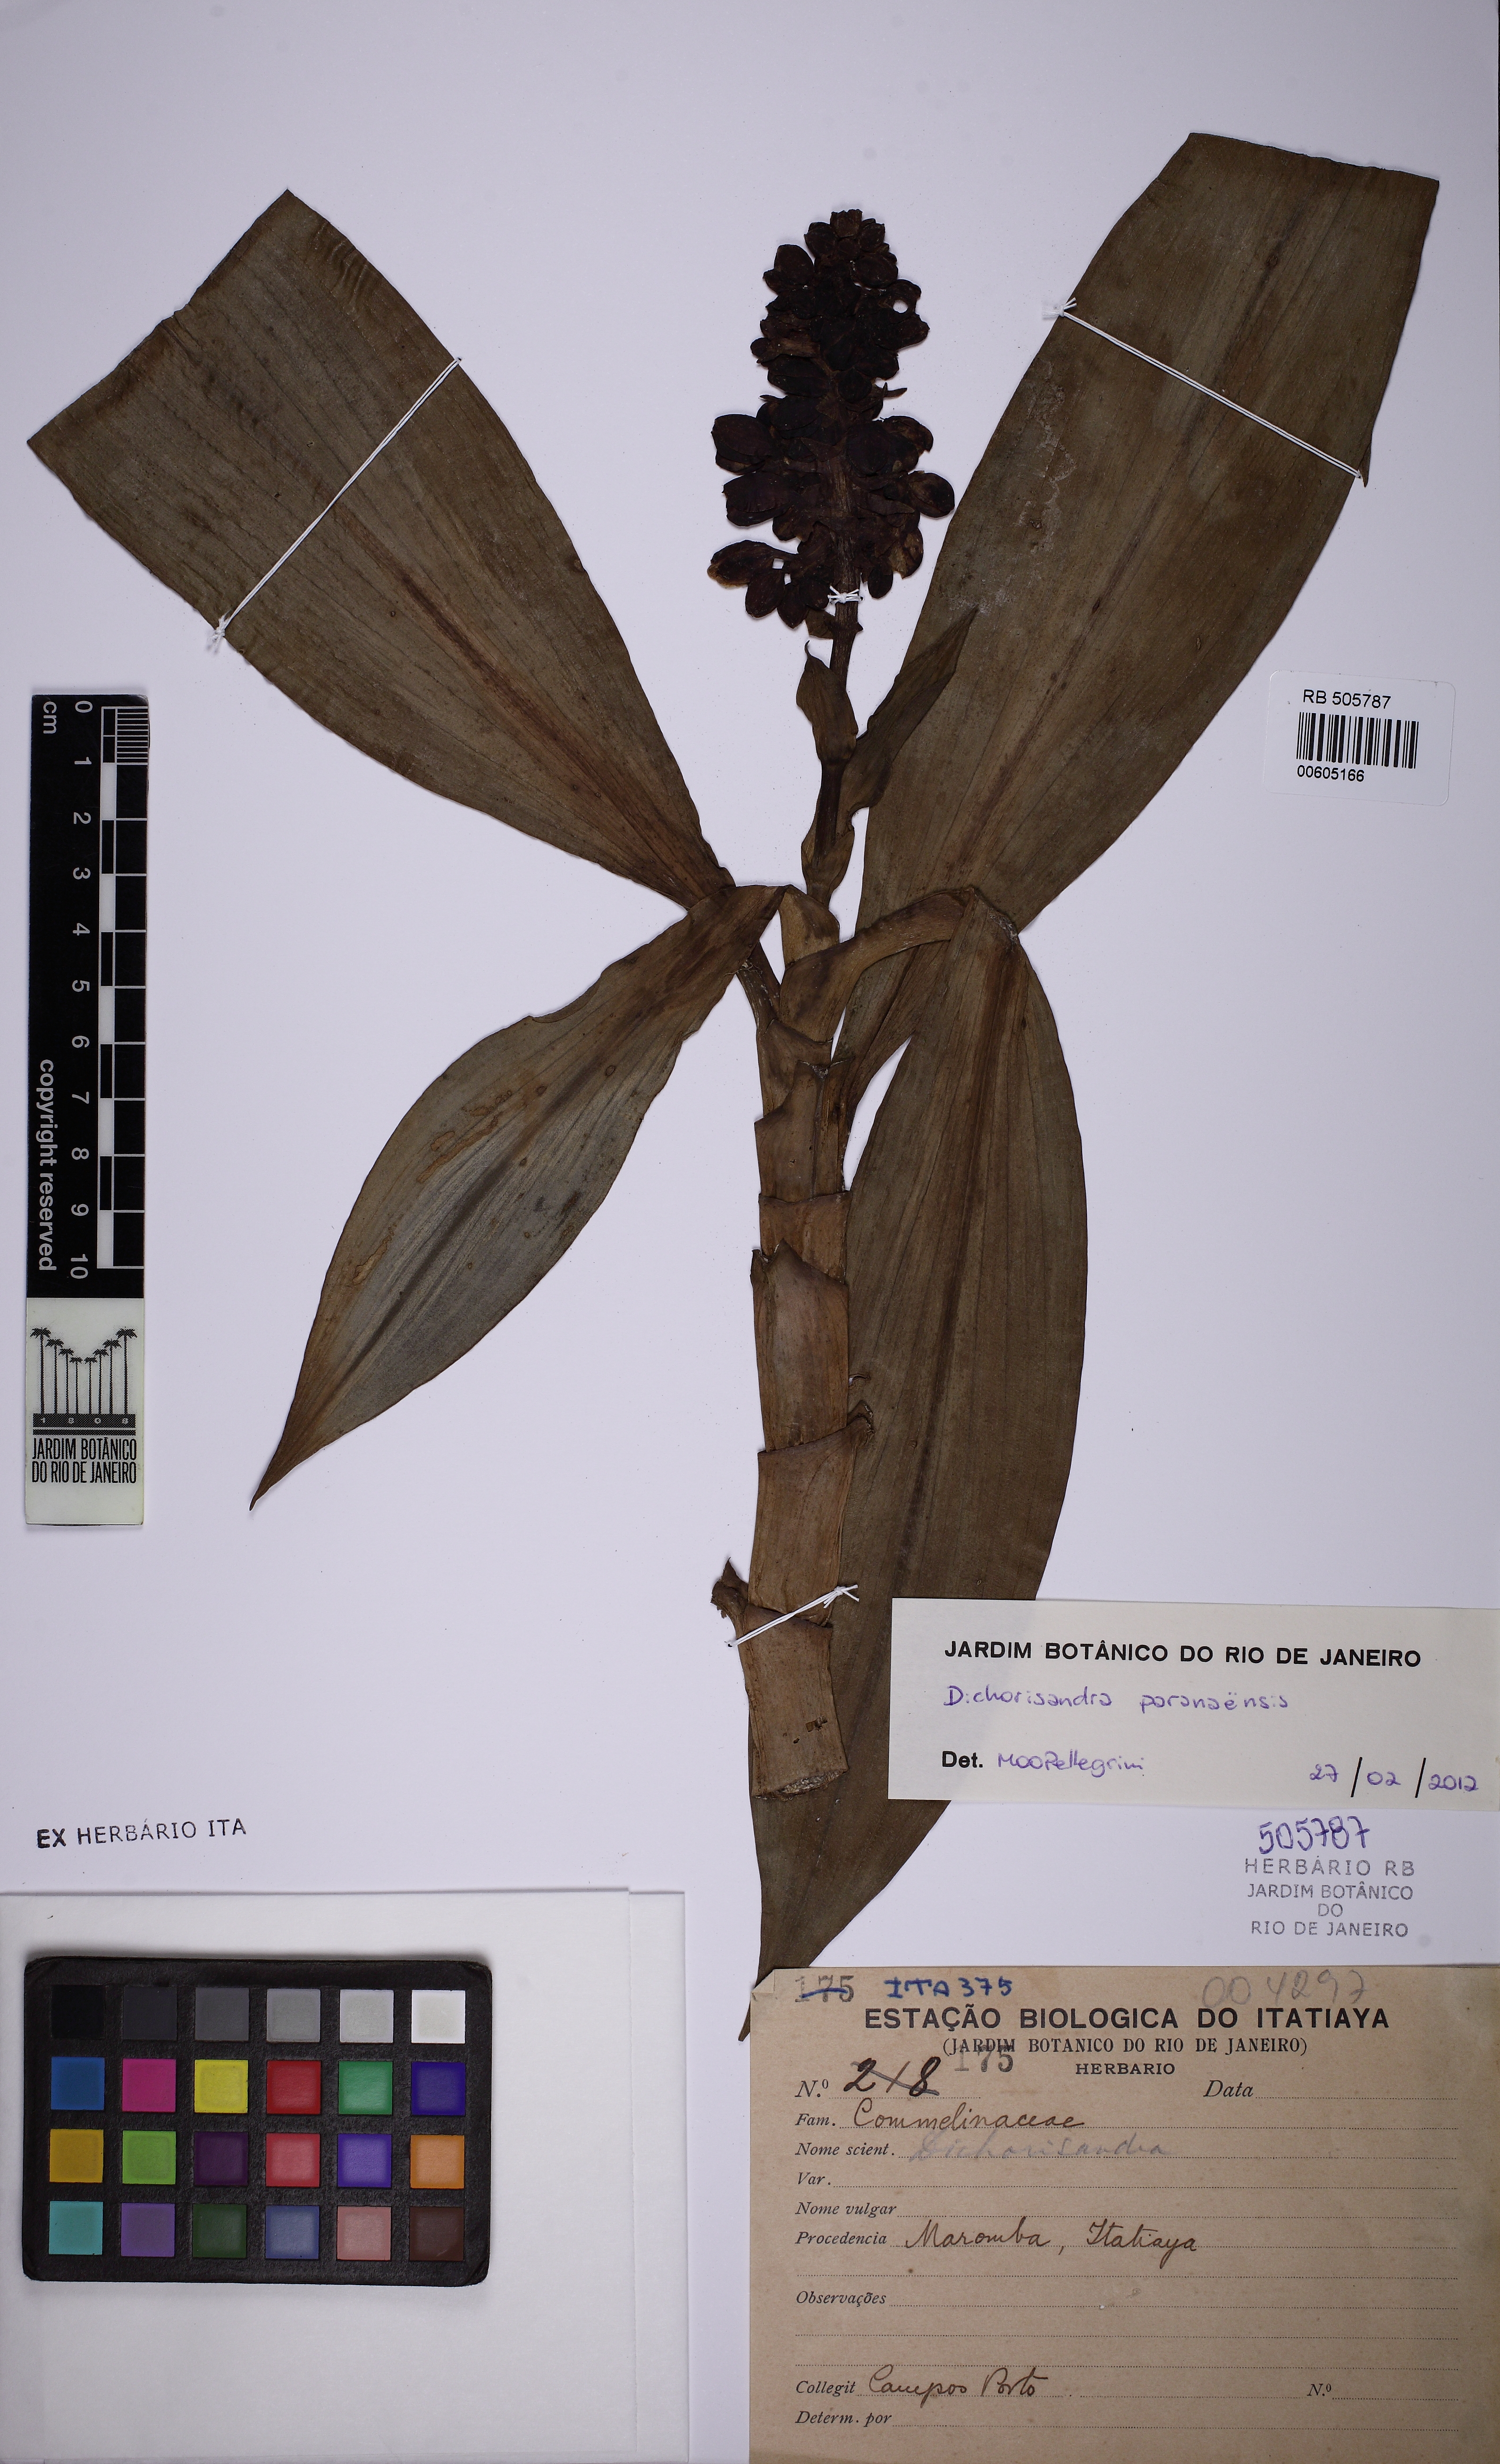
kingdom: Plantae
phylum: Tracheophyta
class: Liliopsida
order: Commelinales
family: Commelinaceae
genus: Dichorisandra
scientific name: Dichorisandra paranaensis
